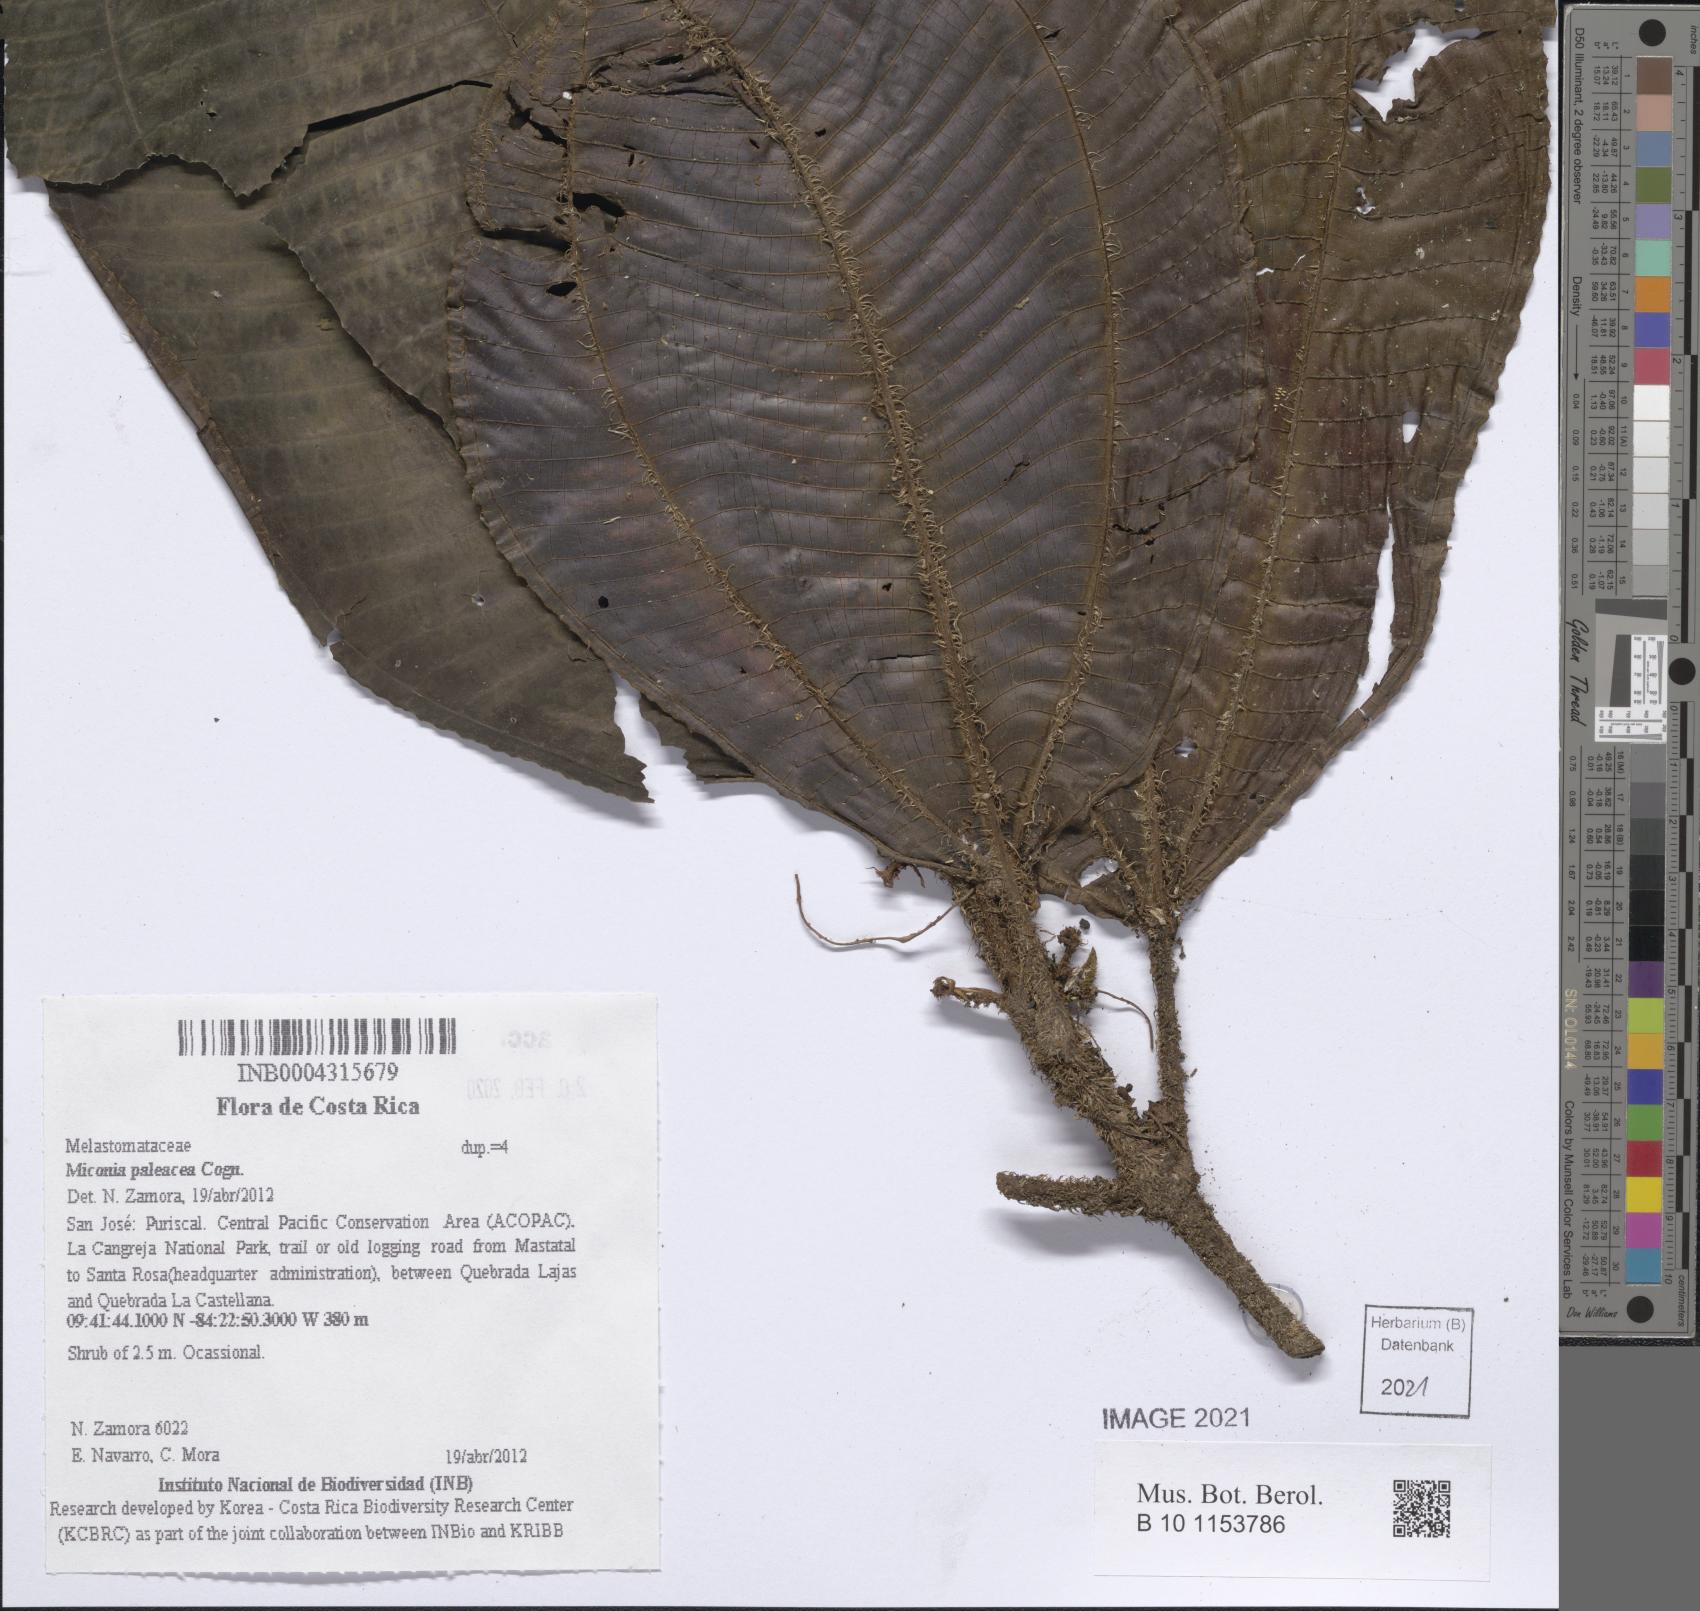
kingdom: Plantae
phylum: Tracheophyta
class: Magnoliopsida
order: Myrtales
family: Melastomataceae
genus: Miconia
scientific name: Miconia paleacea
